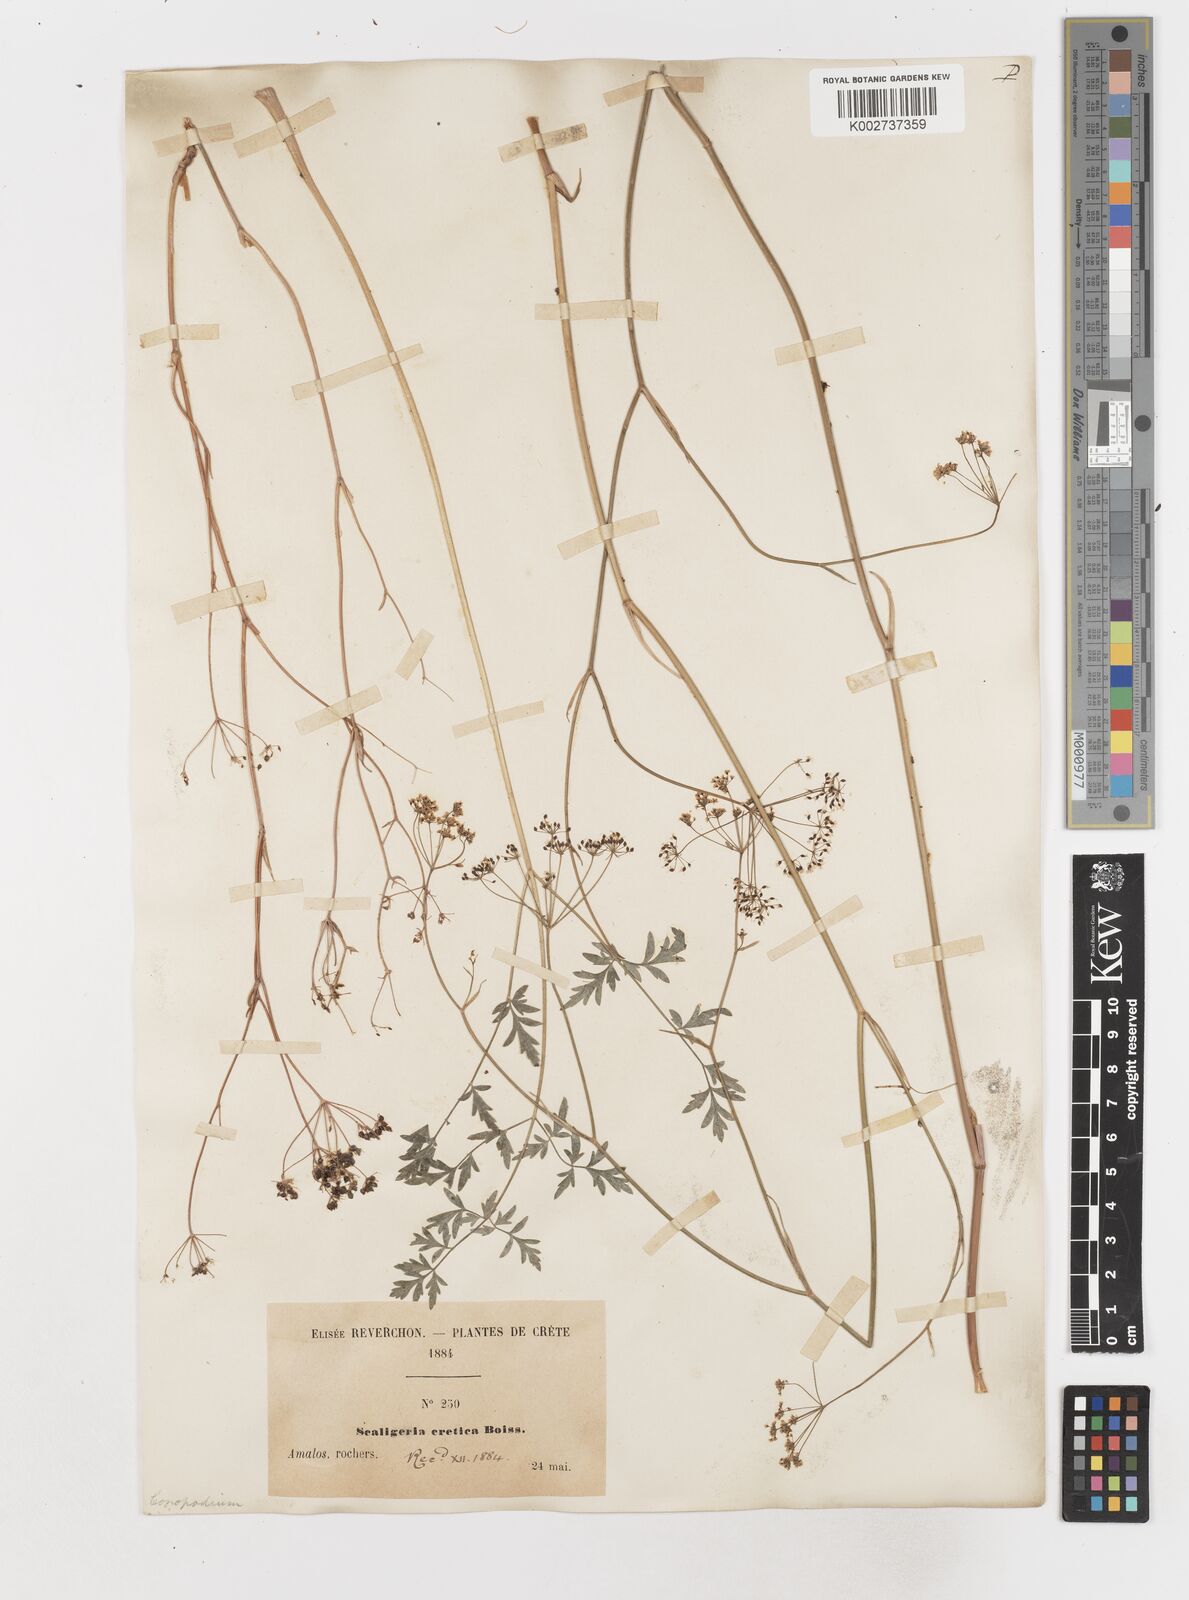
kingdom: Plantae
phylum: Tracheophyta
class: Magnoliopsida
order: Apiales
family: Apiaceae
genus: Scaligeria
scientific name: Scaligeria napiformis
